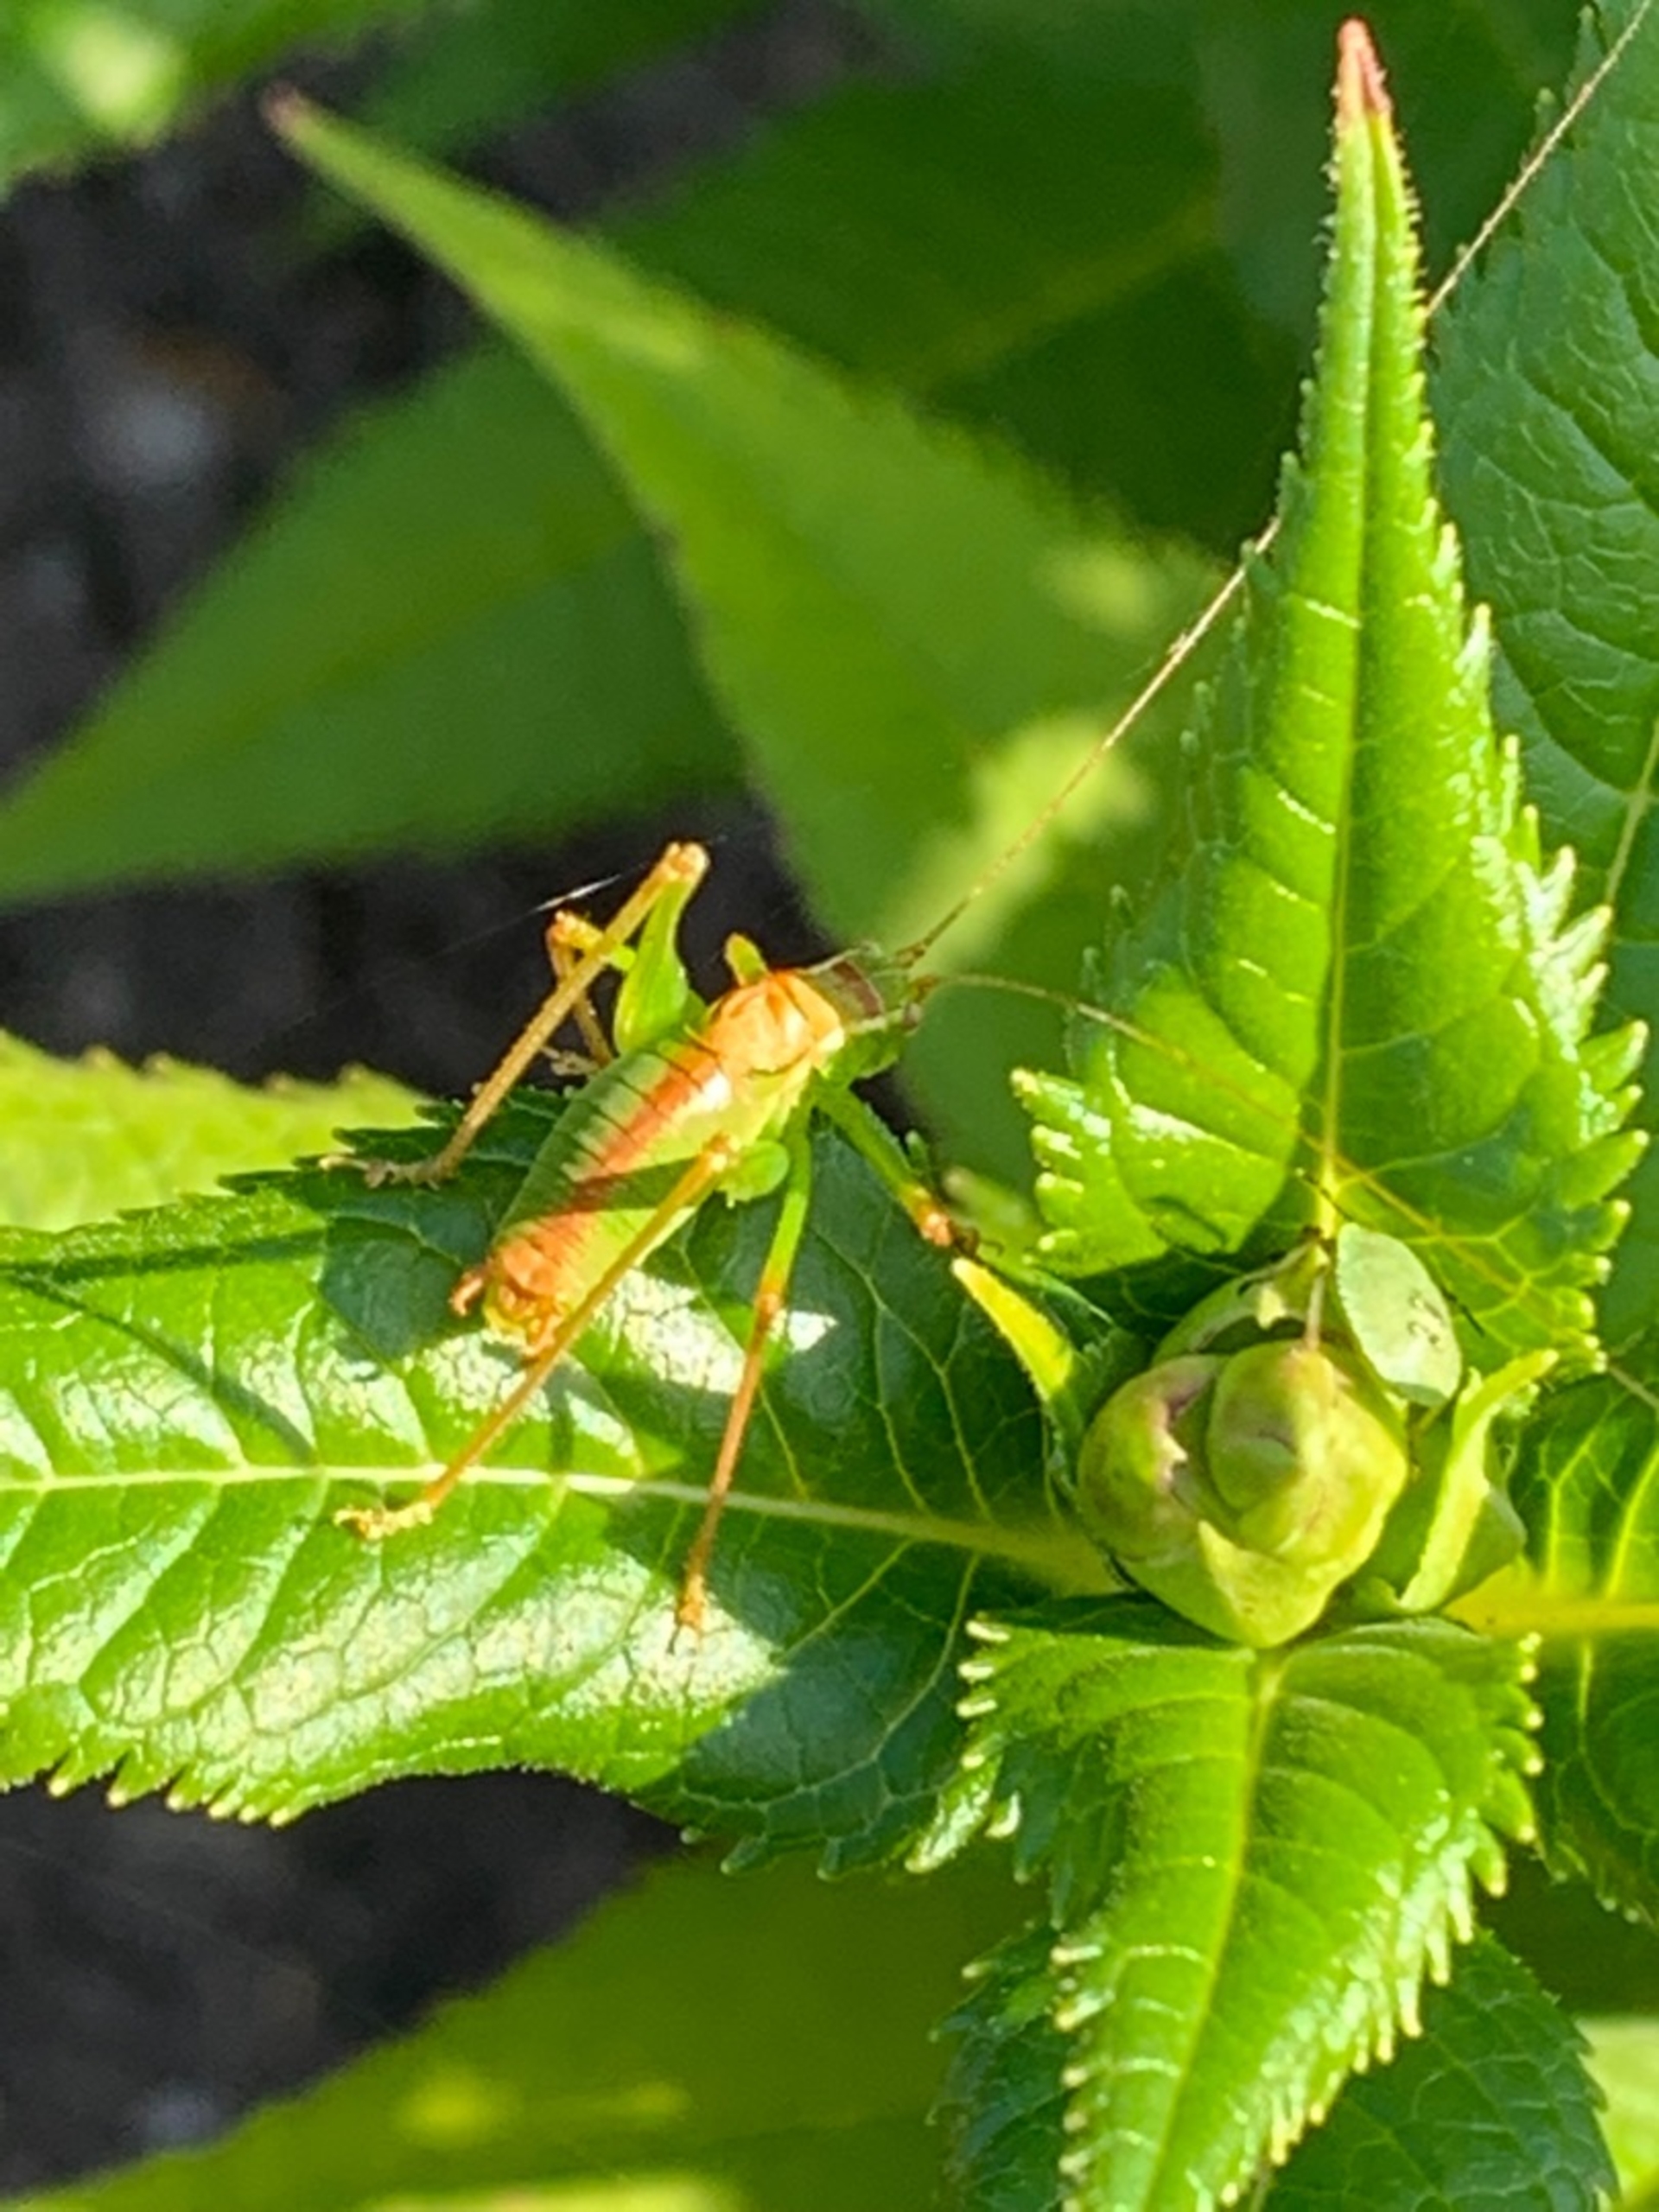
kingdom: Animalia
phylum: Arthropoda
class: Insecta
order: Orthoptera
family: Tettigoniidae
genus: Leptophyes
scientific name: Leptophyes punctatissima
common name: Krumknivgræshoppe
